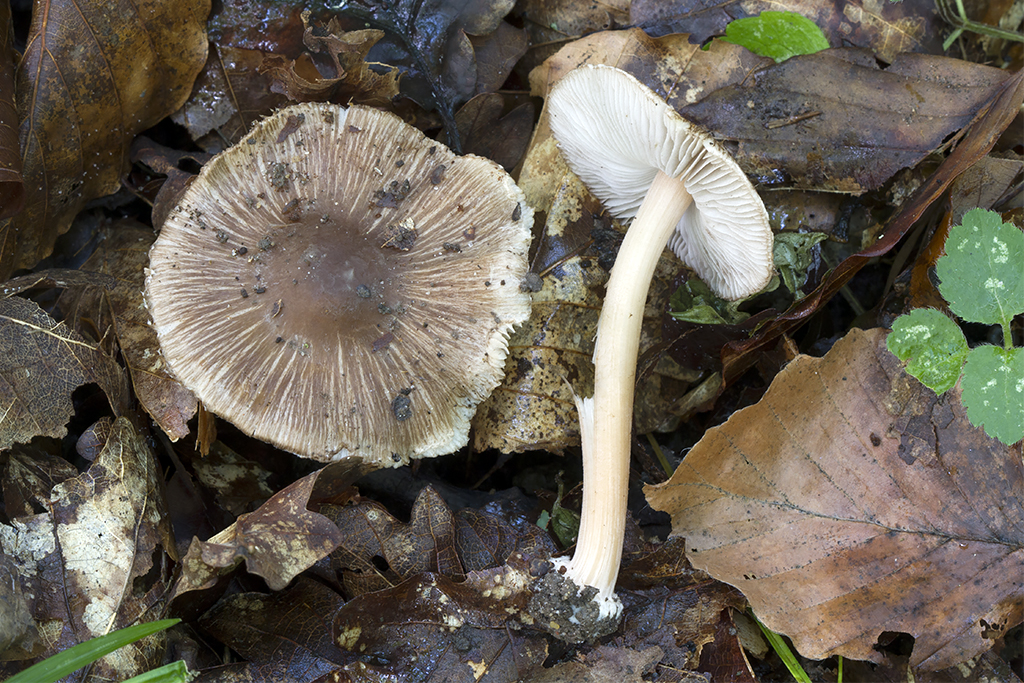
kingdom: Fungi
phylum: Basidiomycota
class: Agaricomycetes
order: Agaricales
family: Inocybaceae
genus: Inocybe
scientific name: Inocybe asterospora
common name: stjernesporet trævlhat
